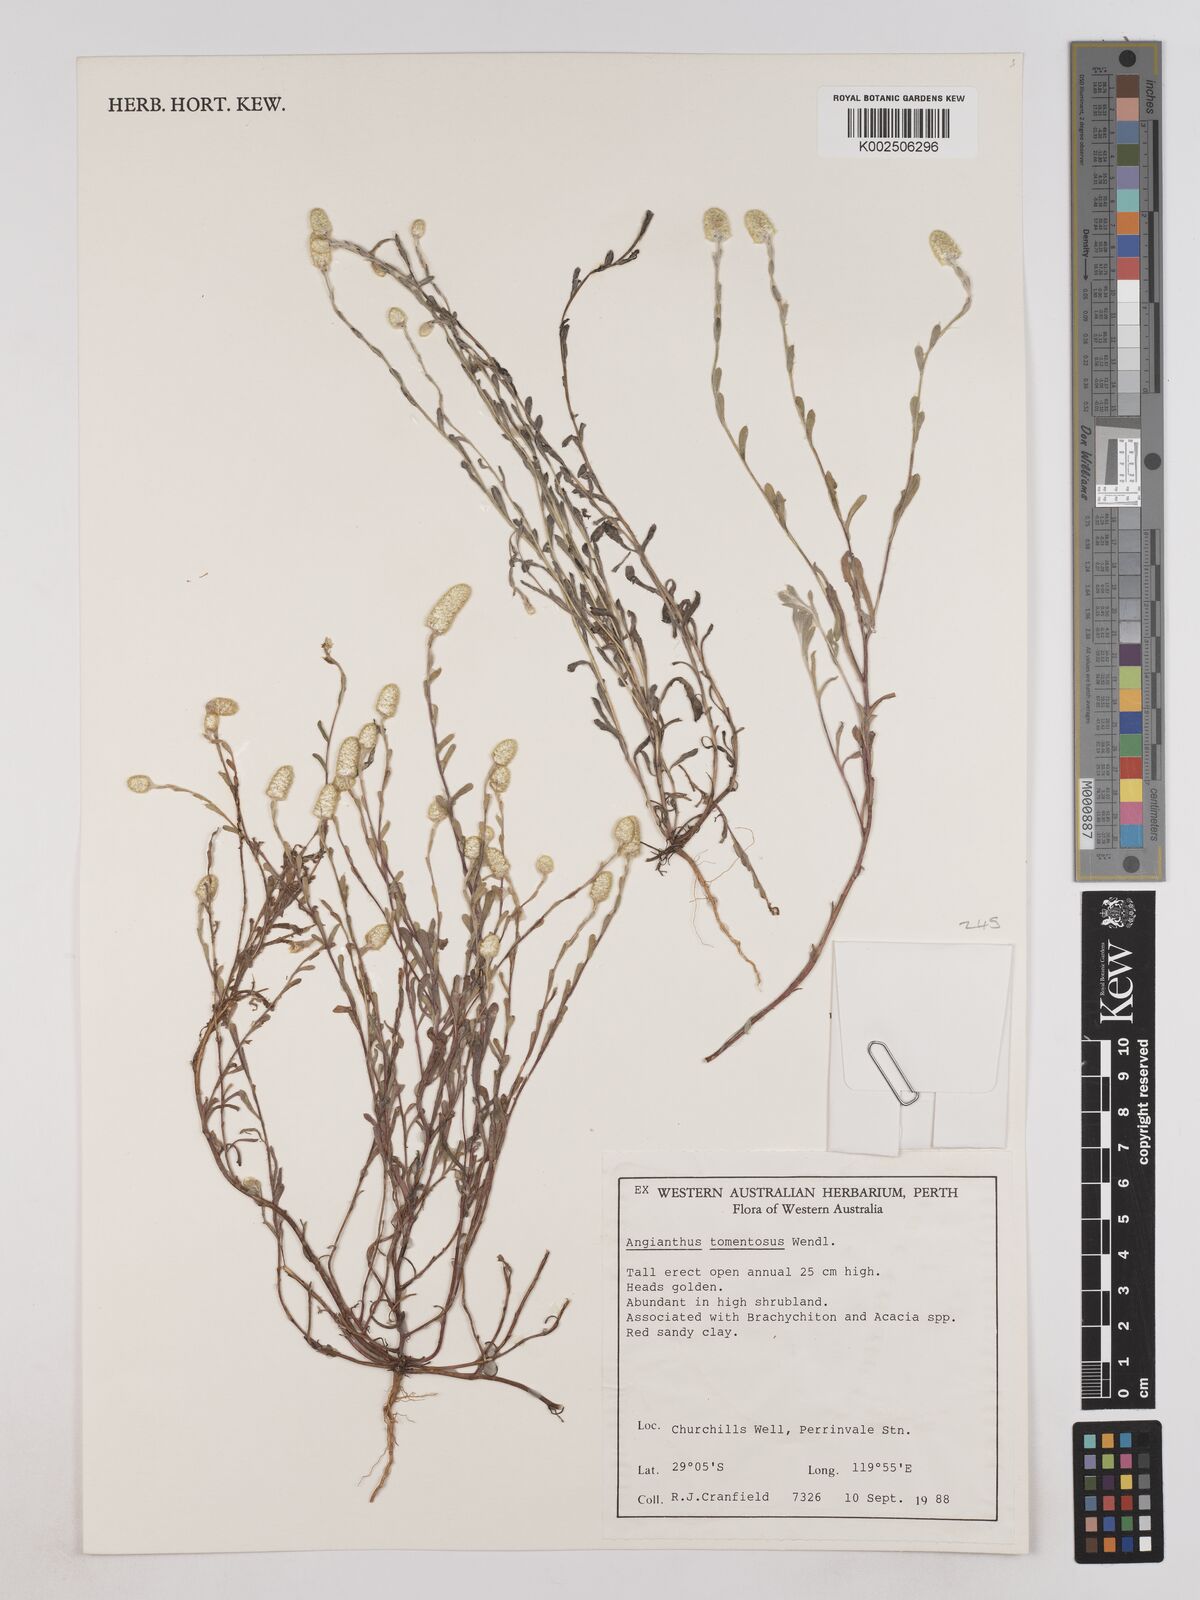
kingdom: Plantae
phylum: Tracheophyta
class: Magnoliopsida
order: Asterales
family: Asteraceae
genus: Siloxerus
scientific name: Siloxerus tomentosus
